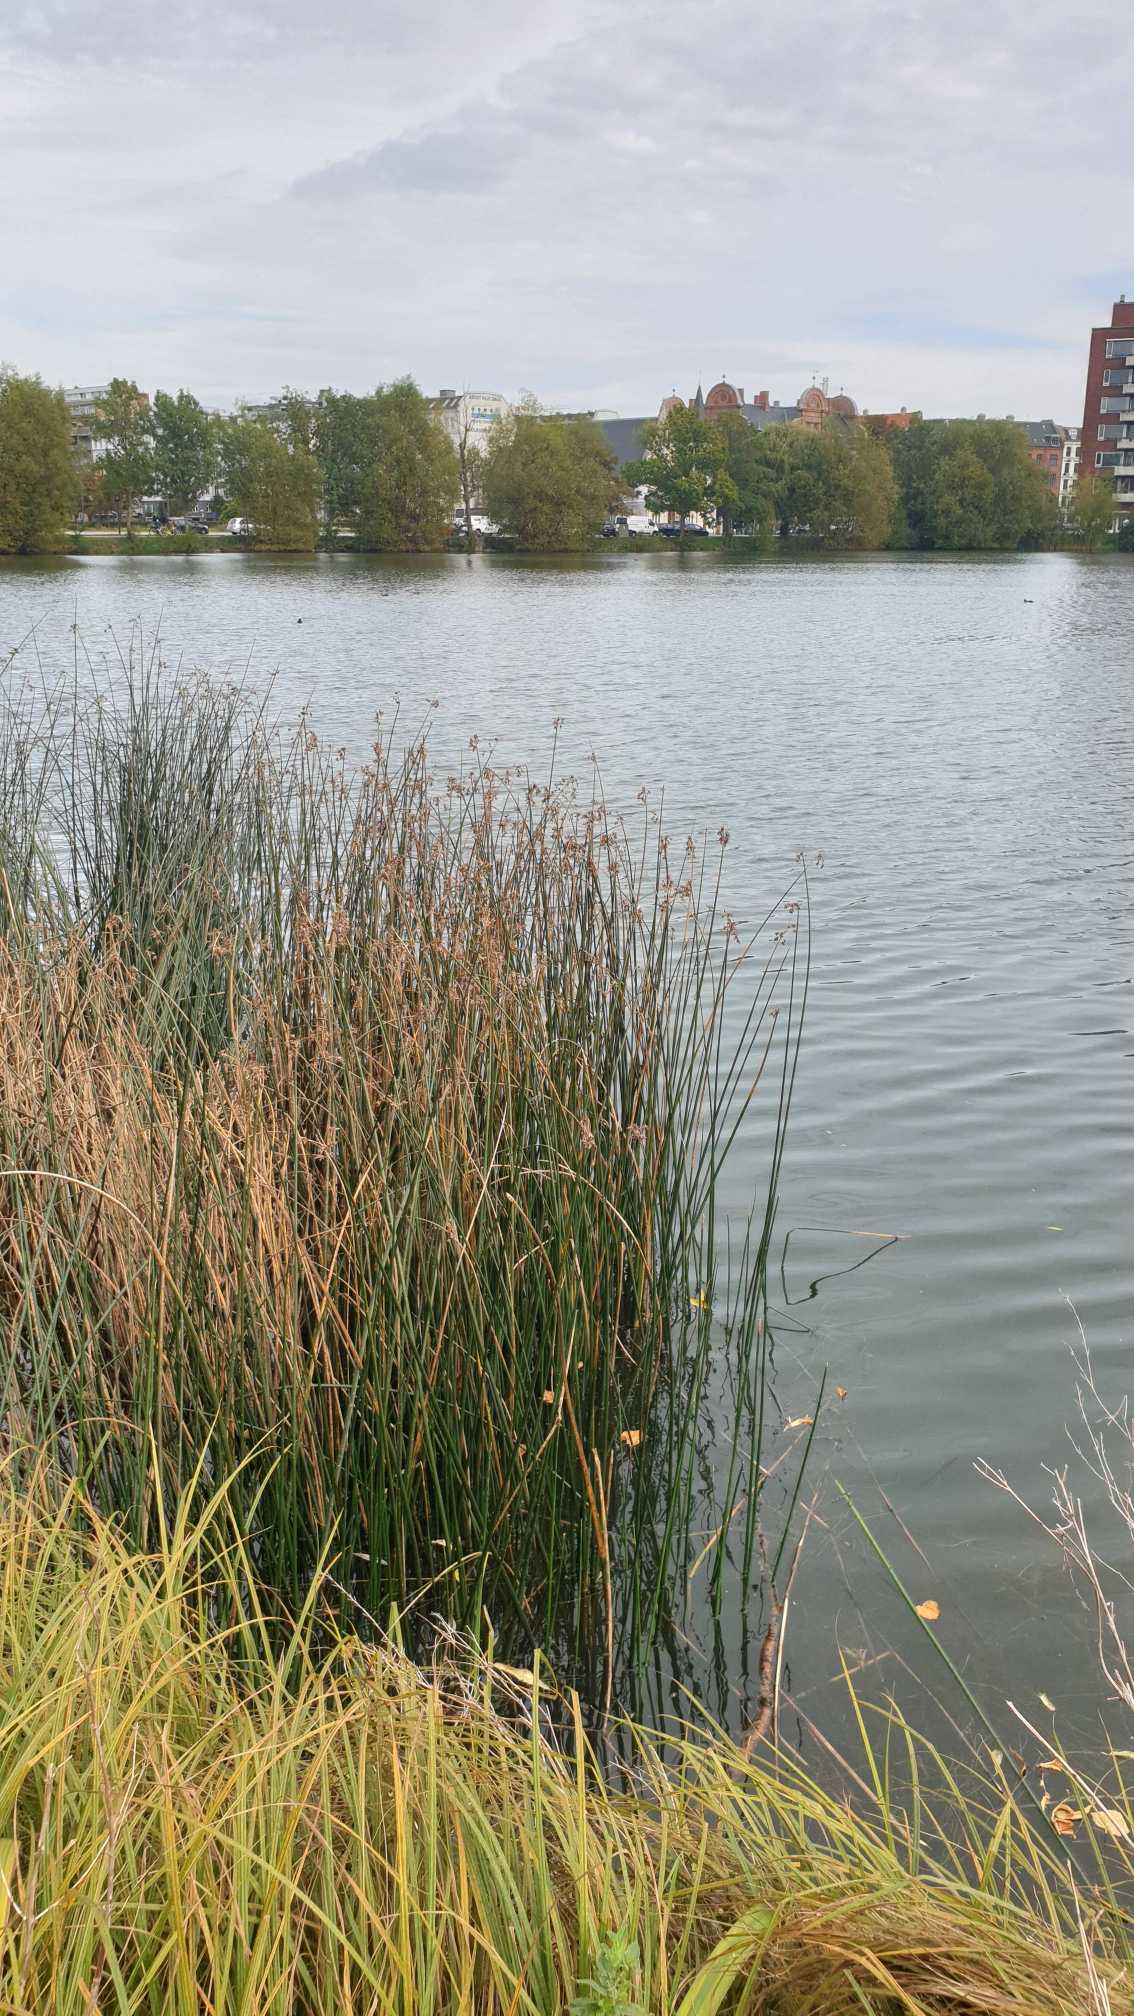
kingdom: Plantae
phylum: Tracheophyta
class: Liliopsida
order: Poales
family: Cyperaceae
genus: Schoenoplectus
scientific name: Schoenoplectus lacustris
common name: Sø-kogleaks
